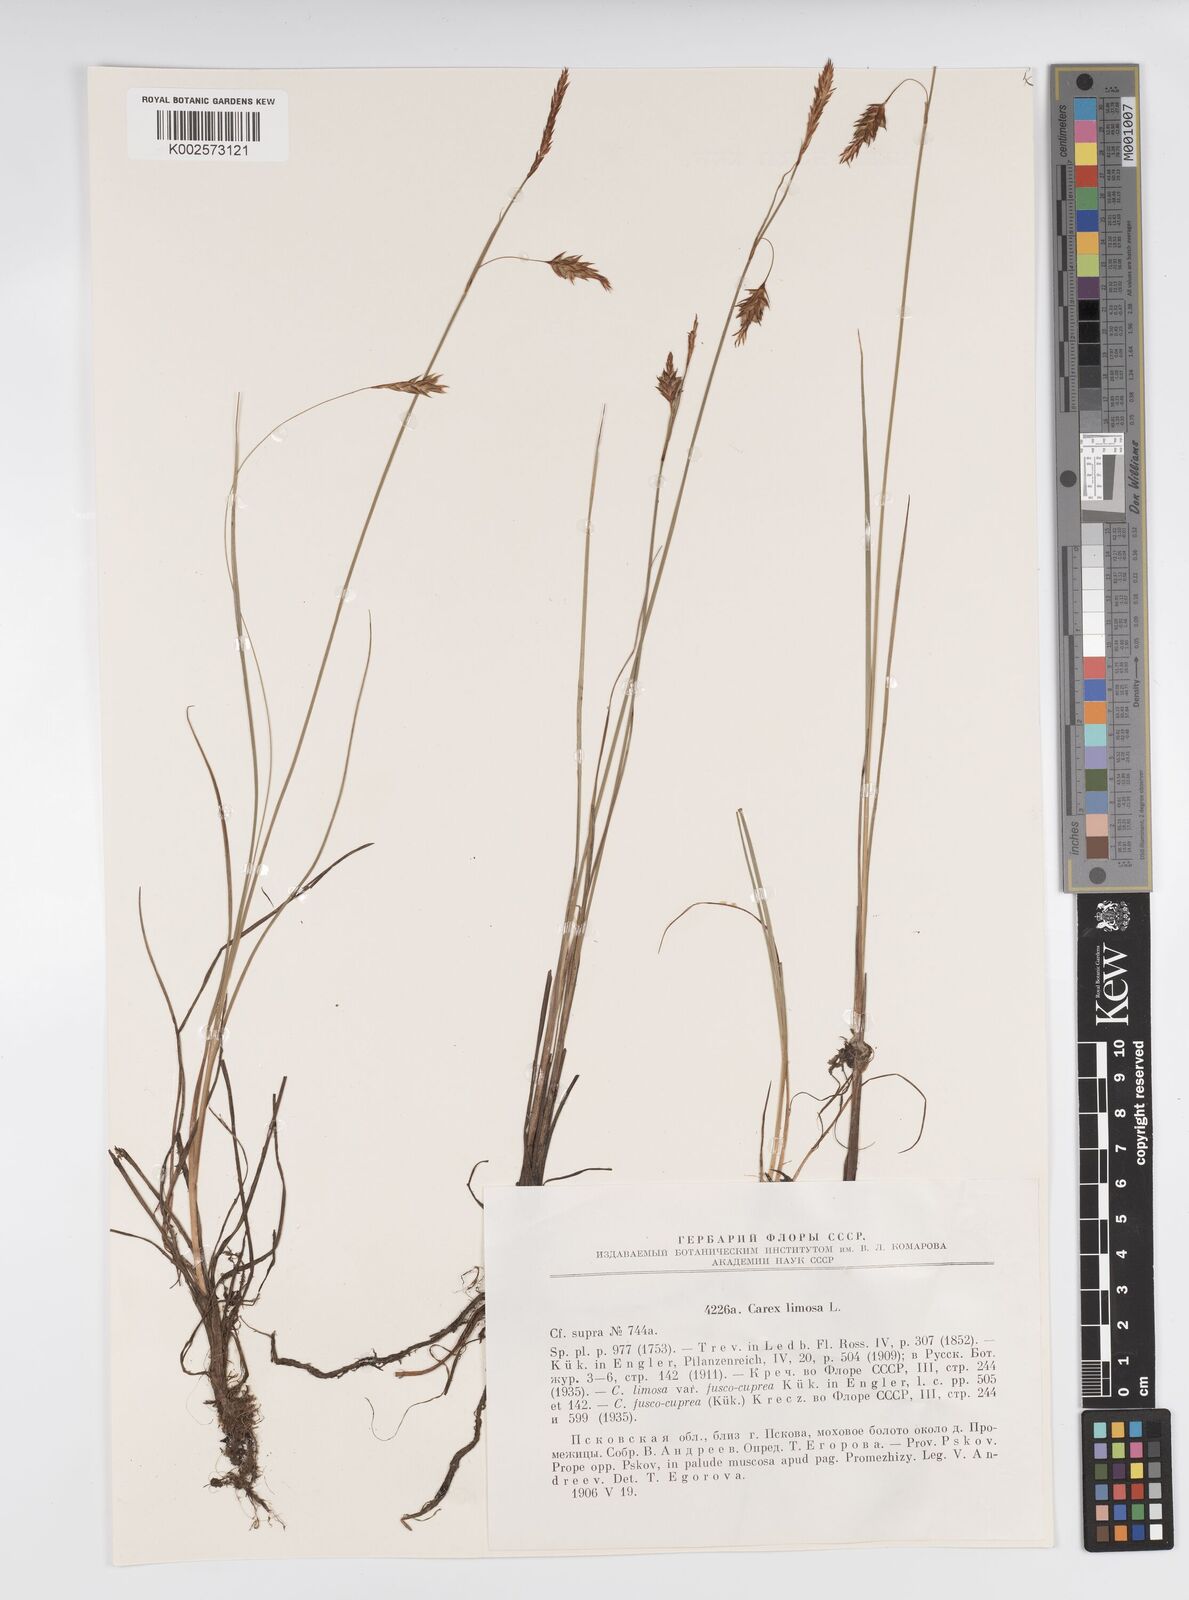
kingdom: Plantae
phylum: Tracheophyta
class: Liliopsida
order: Poales
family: Cyperaceae
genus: Carex
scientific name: Carex limosa
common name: Bog sedge
